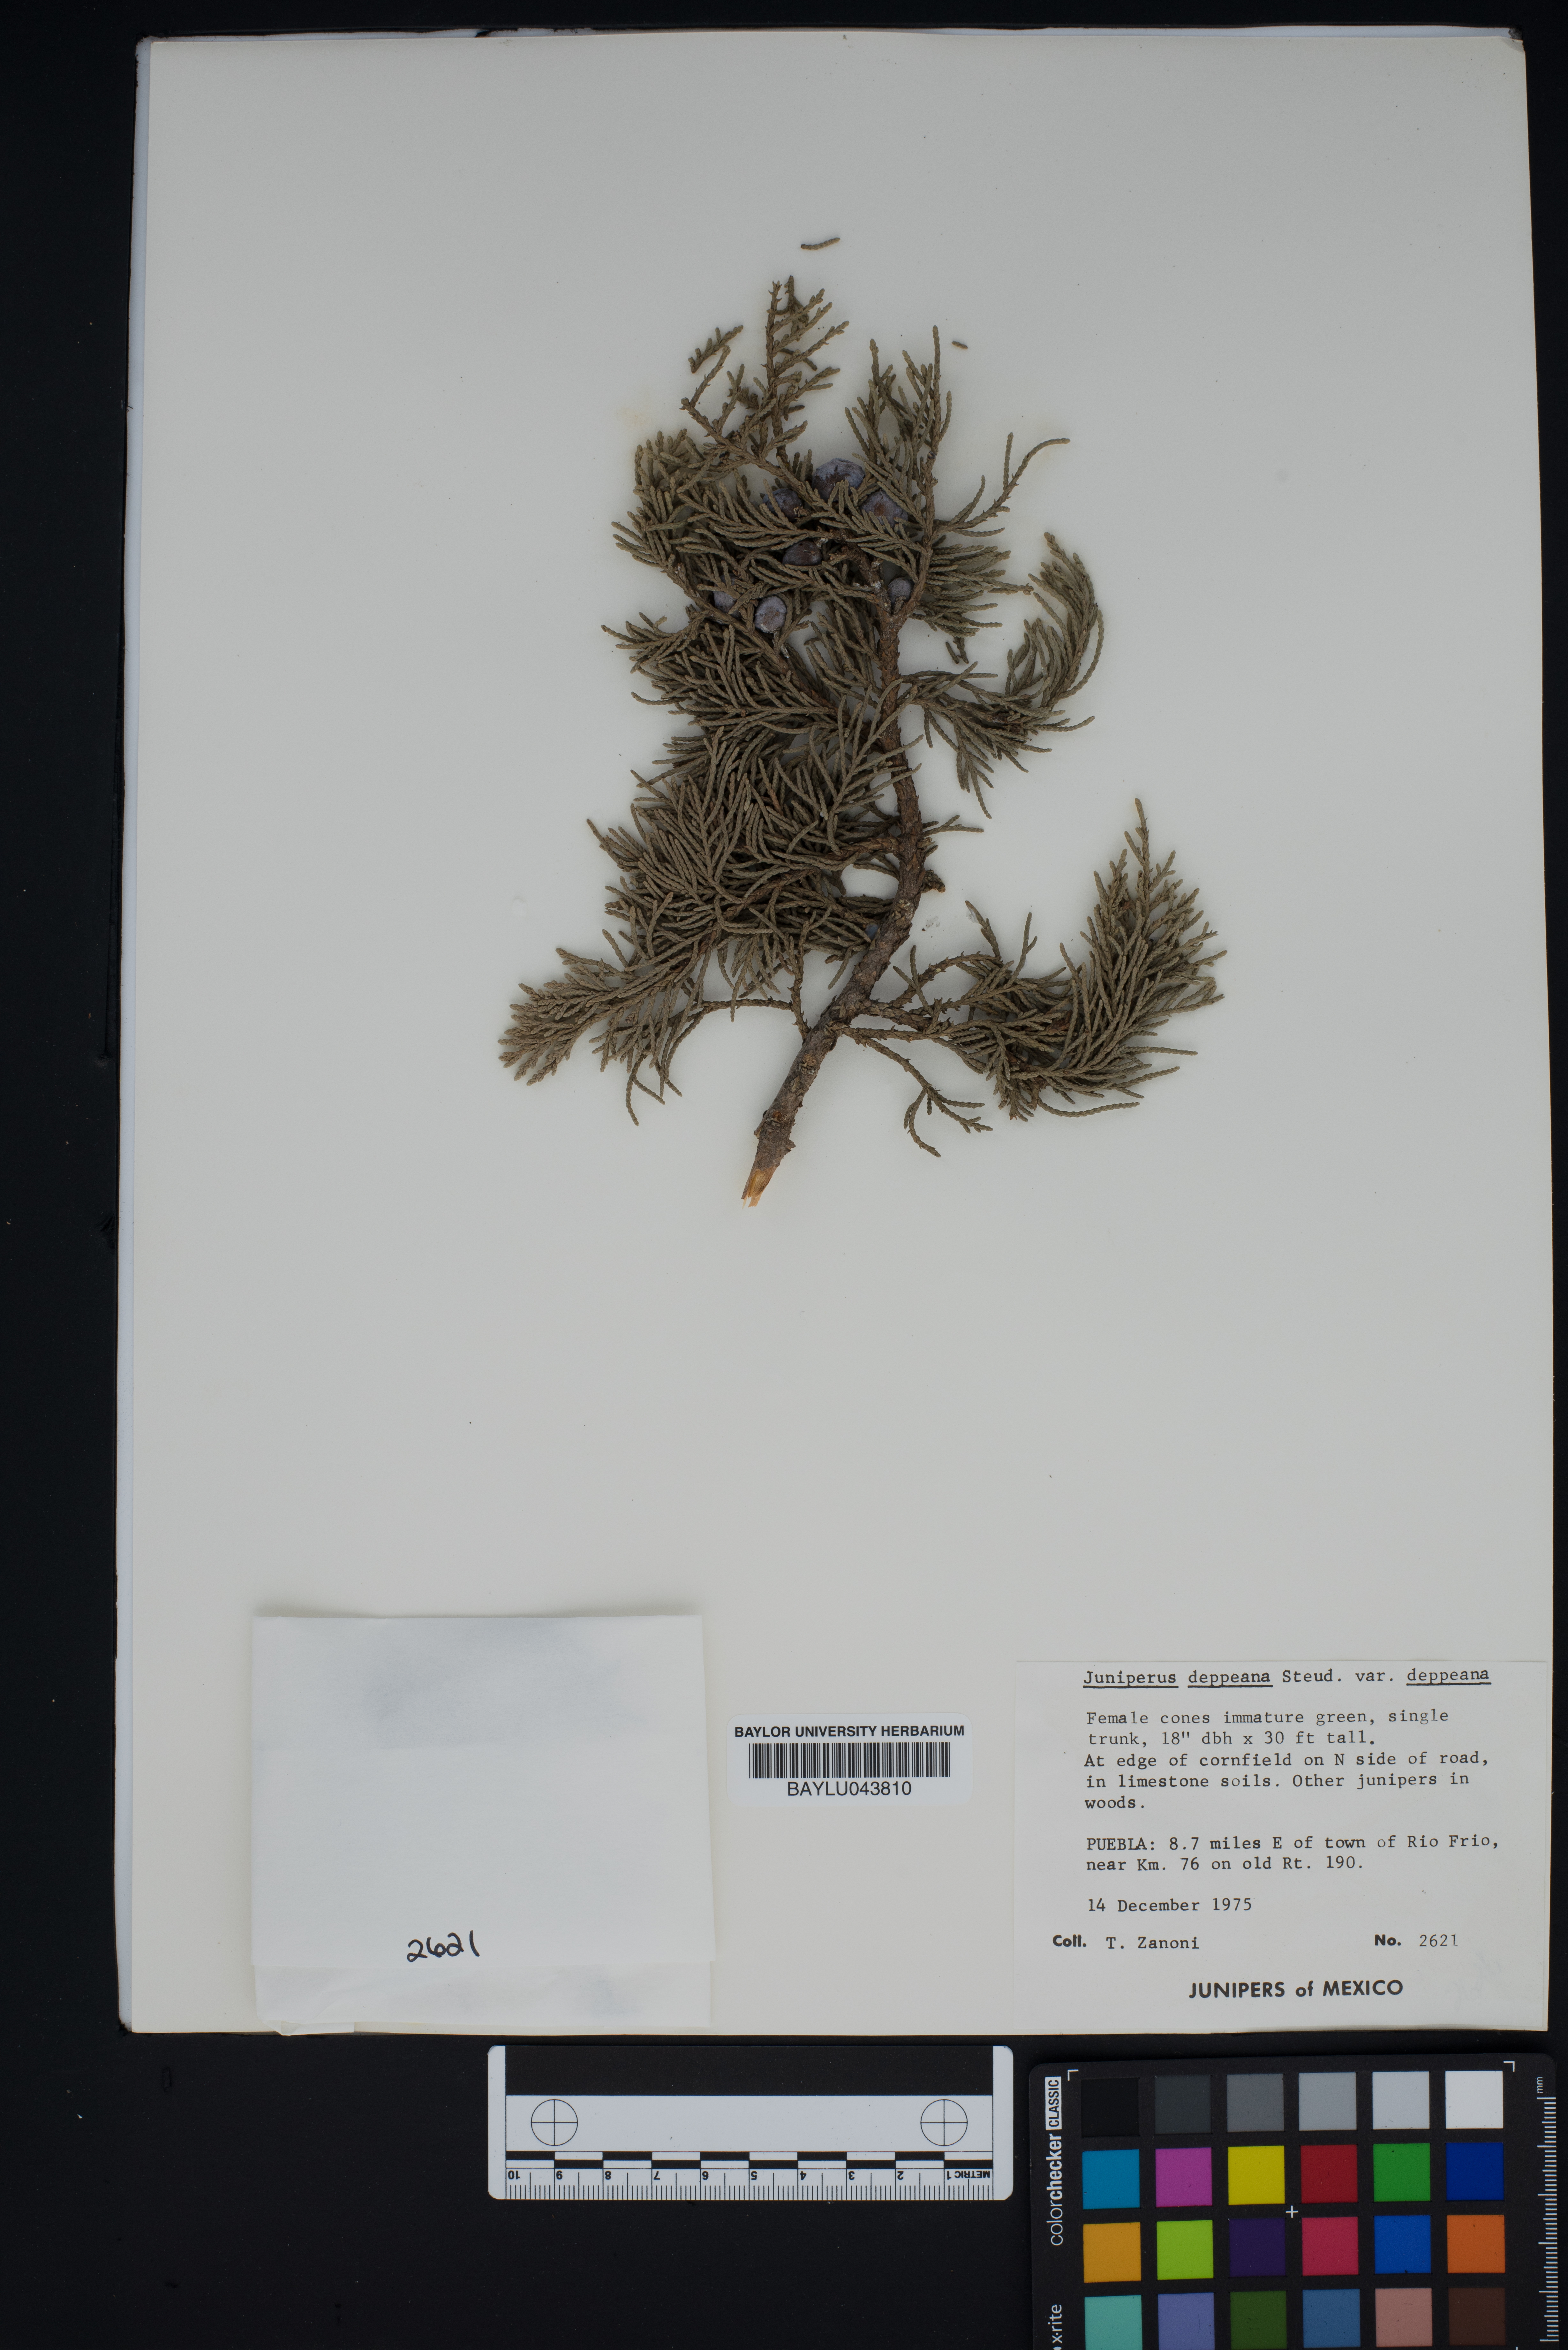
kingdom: Plantae
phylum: Tracheophyta
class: Pinopsida
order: Pinales
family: Cupressaceae
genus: Juniperus
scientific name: Juniperus deppeana
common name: Alligator juniper
